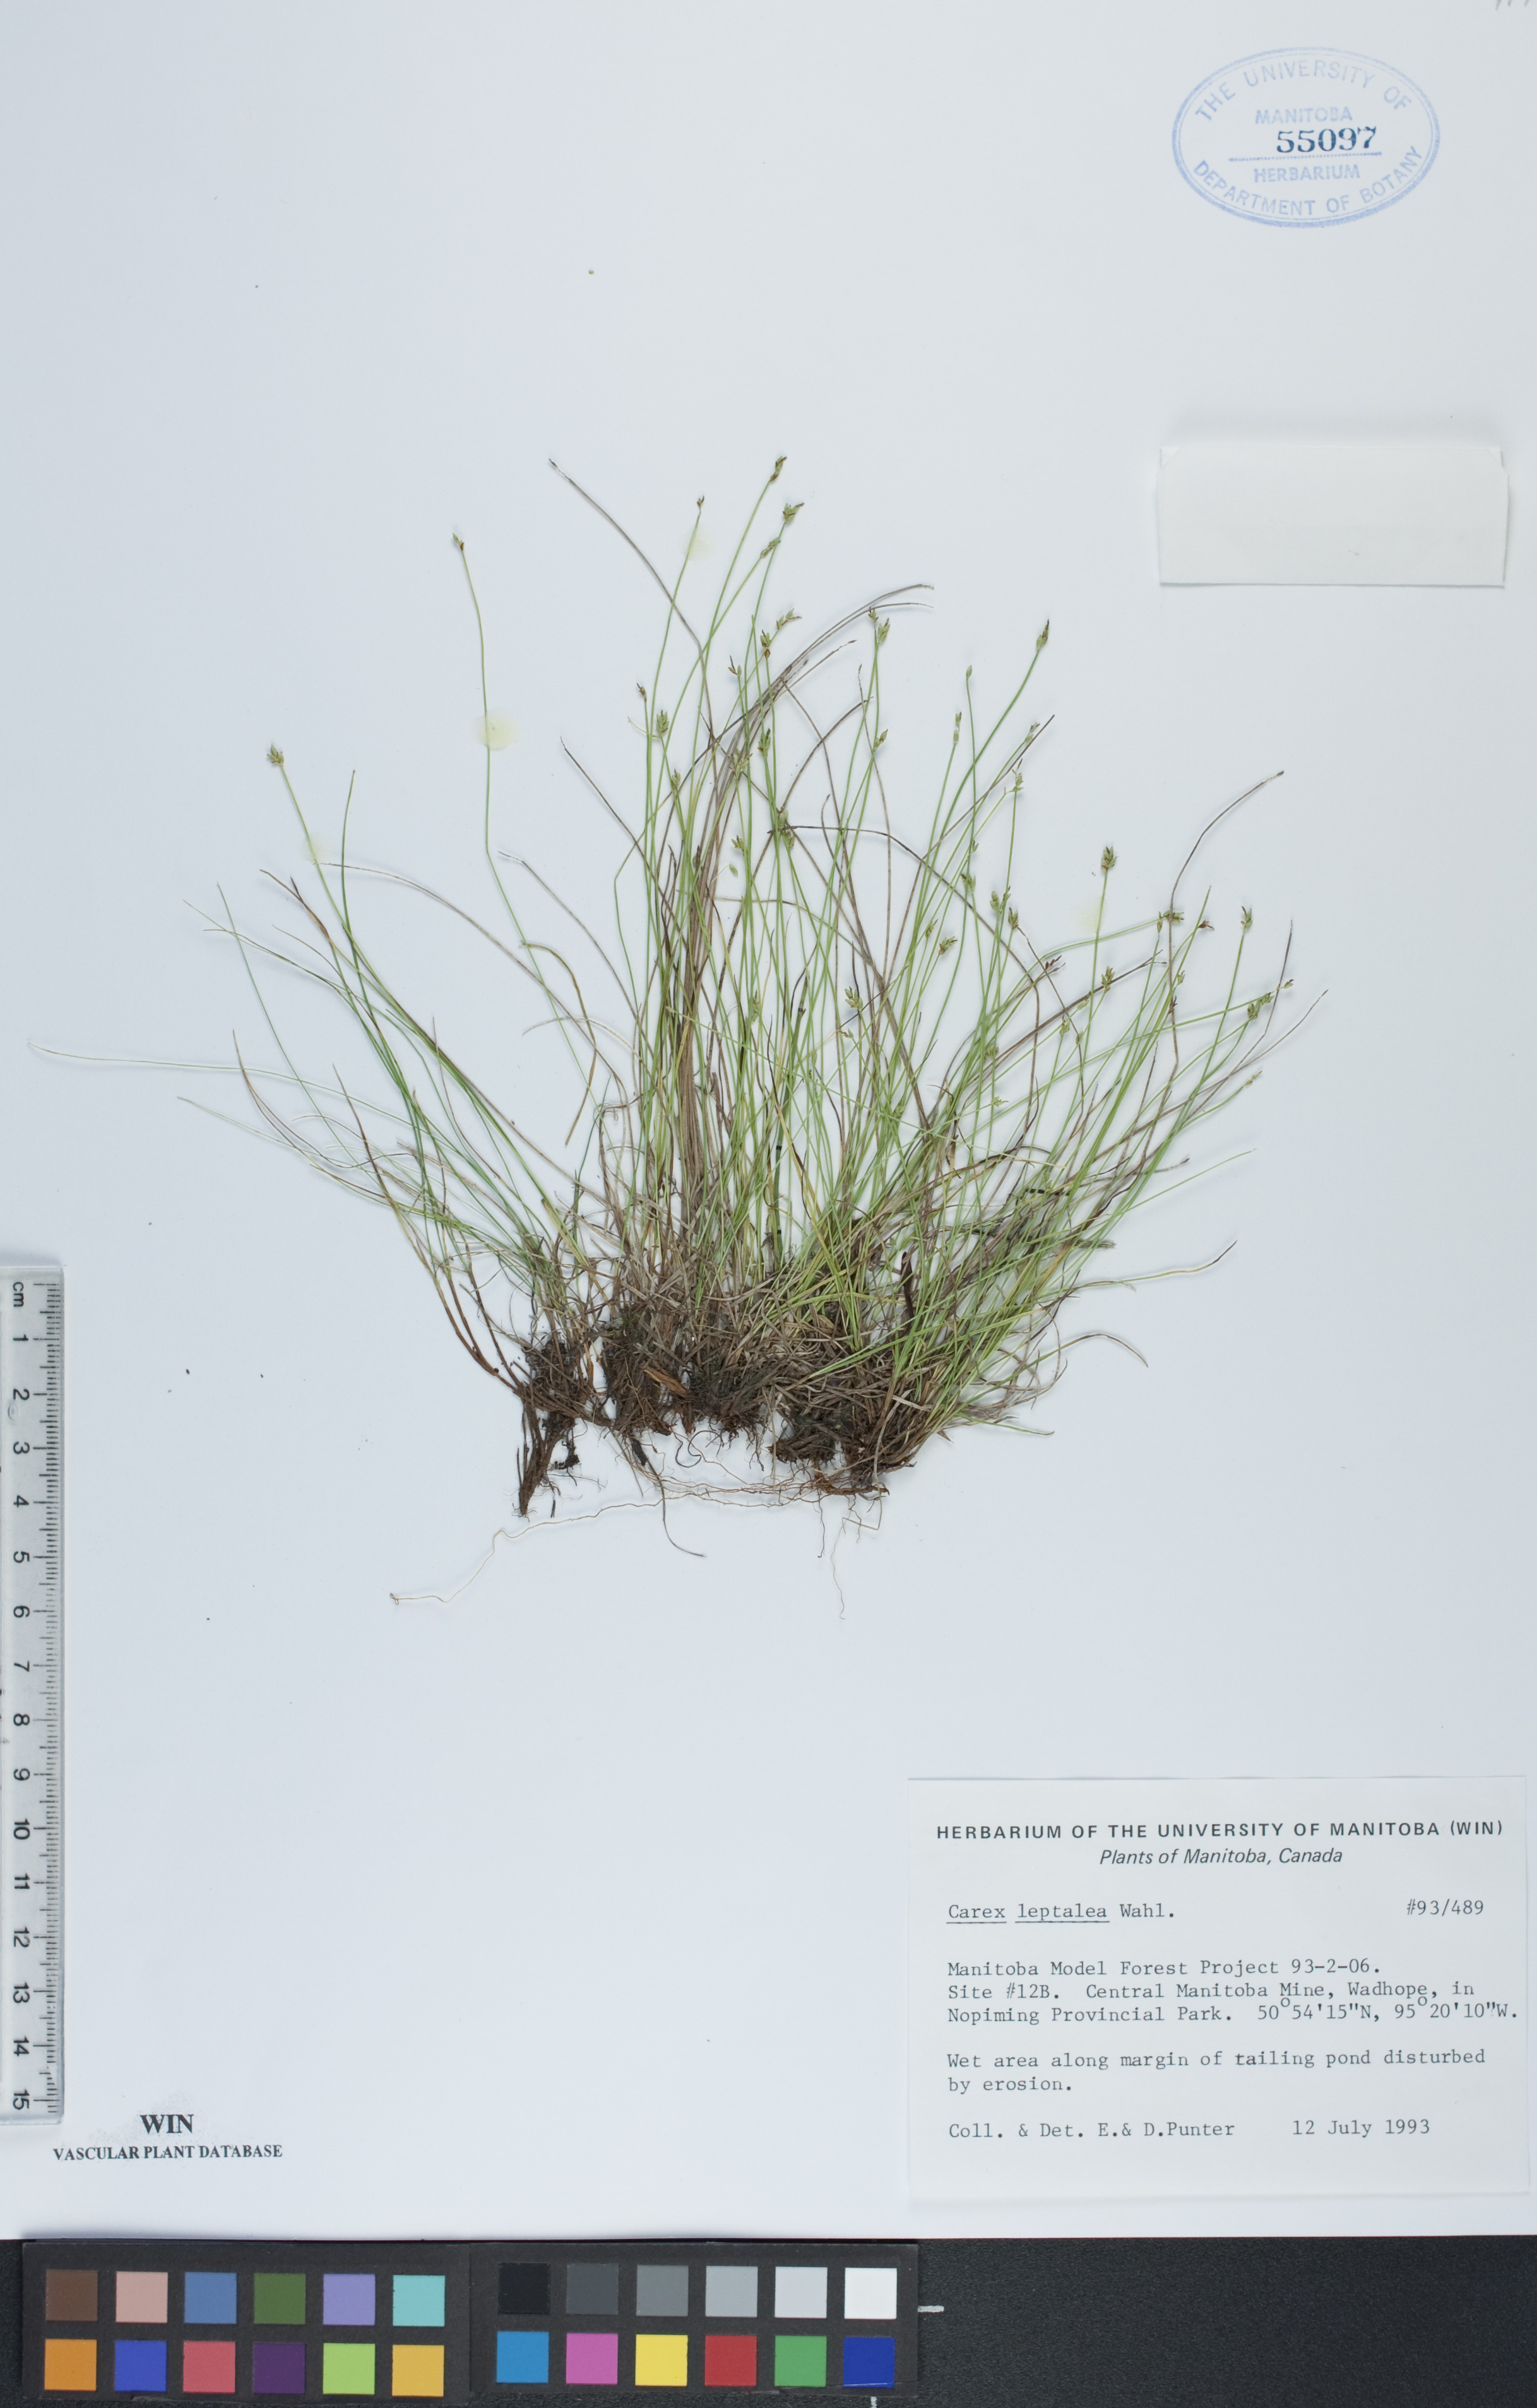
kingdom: Plantae
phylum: Tracheophyta
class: Liliopsida
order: Poales
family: Cyperaceae
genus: Carex
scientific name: Carex leptalea
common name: Bristly-stalked sedge
